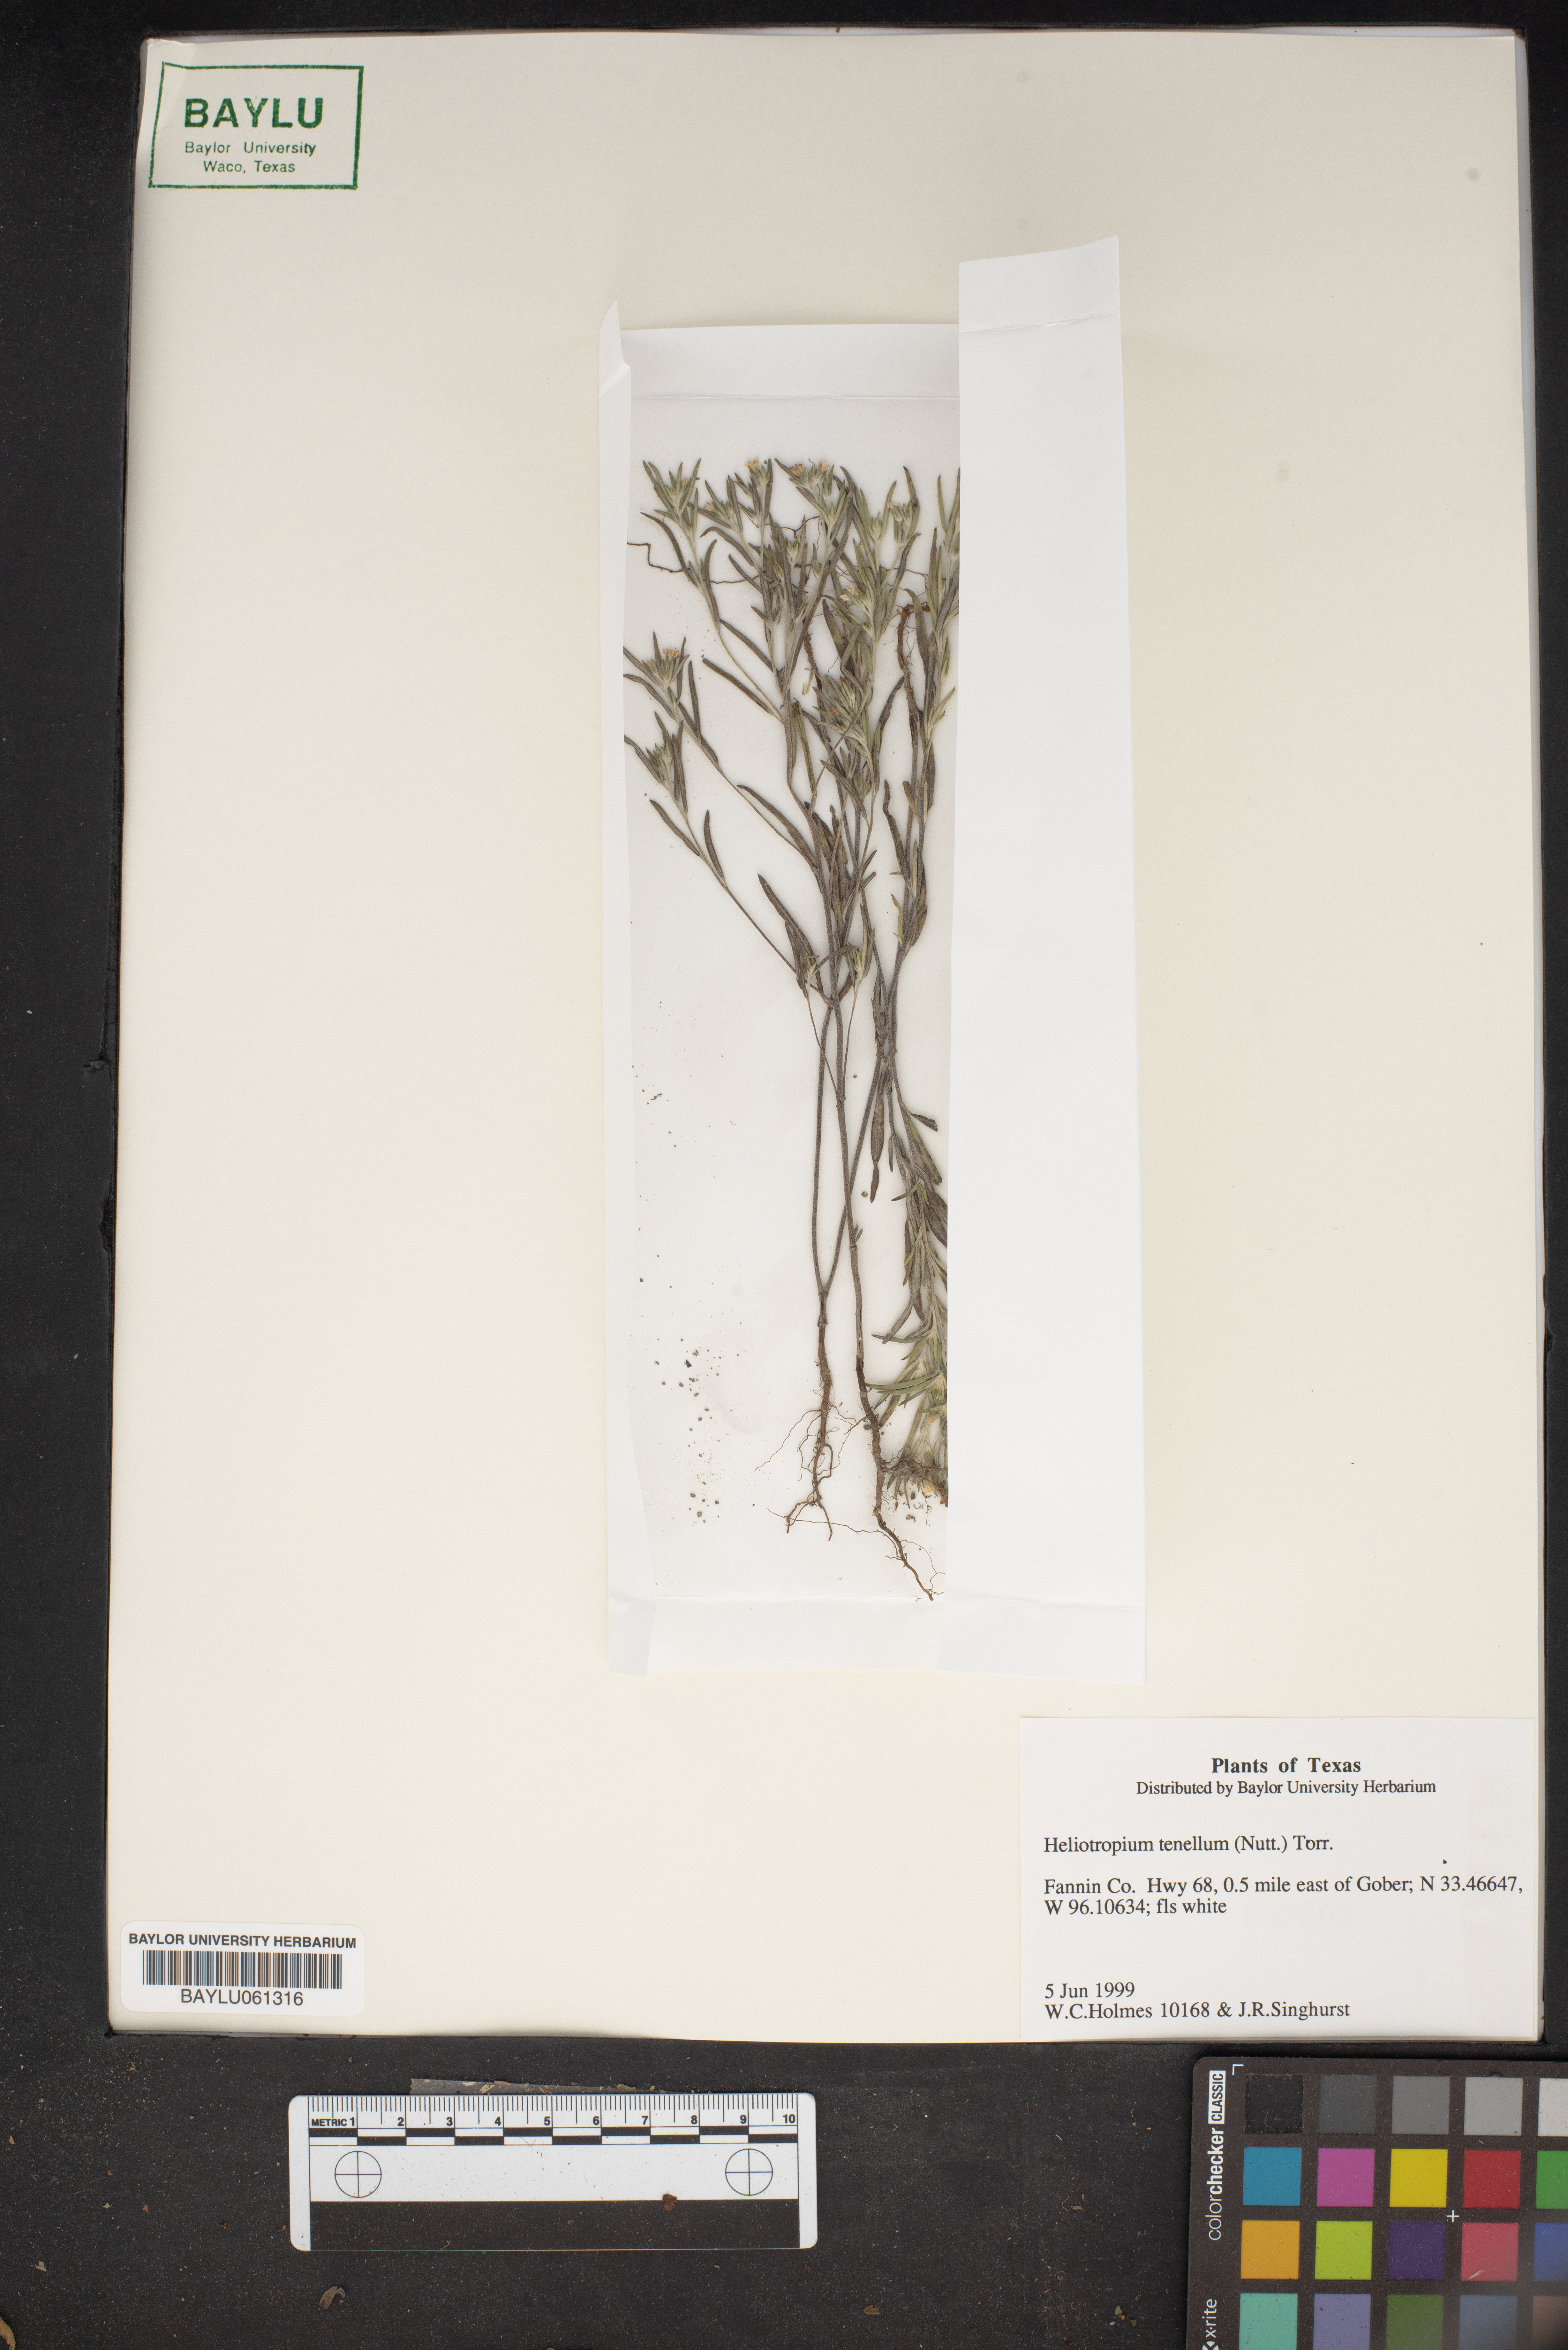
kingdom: Plantae
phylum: Tracheophyta
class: Magnoliopsida
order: Boraginales
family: Heliotropiaceae
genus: Euploca
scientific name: Euploca tenella
